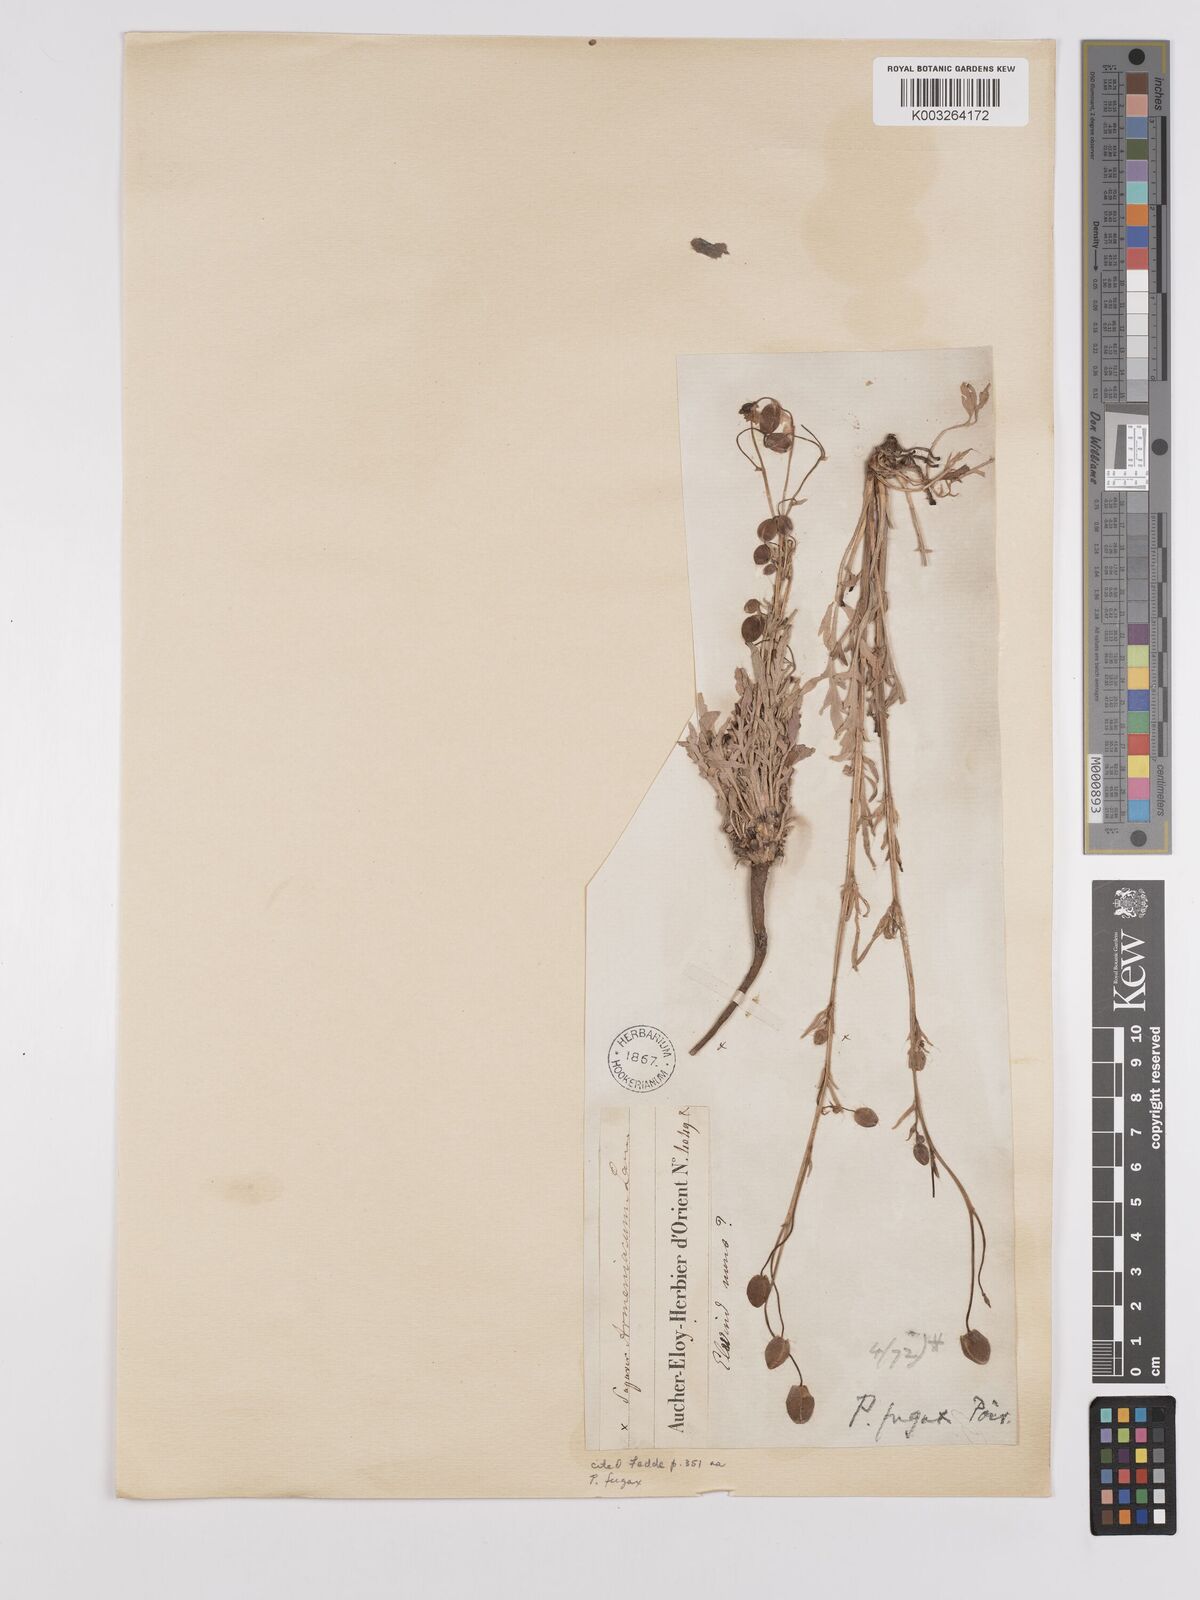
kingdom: Plantae
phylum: Tracheophyta
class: Magnoliopsida
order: Ranunculales
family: Papaveraceae
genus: Papaver
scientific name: Papaver armeniacum
